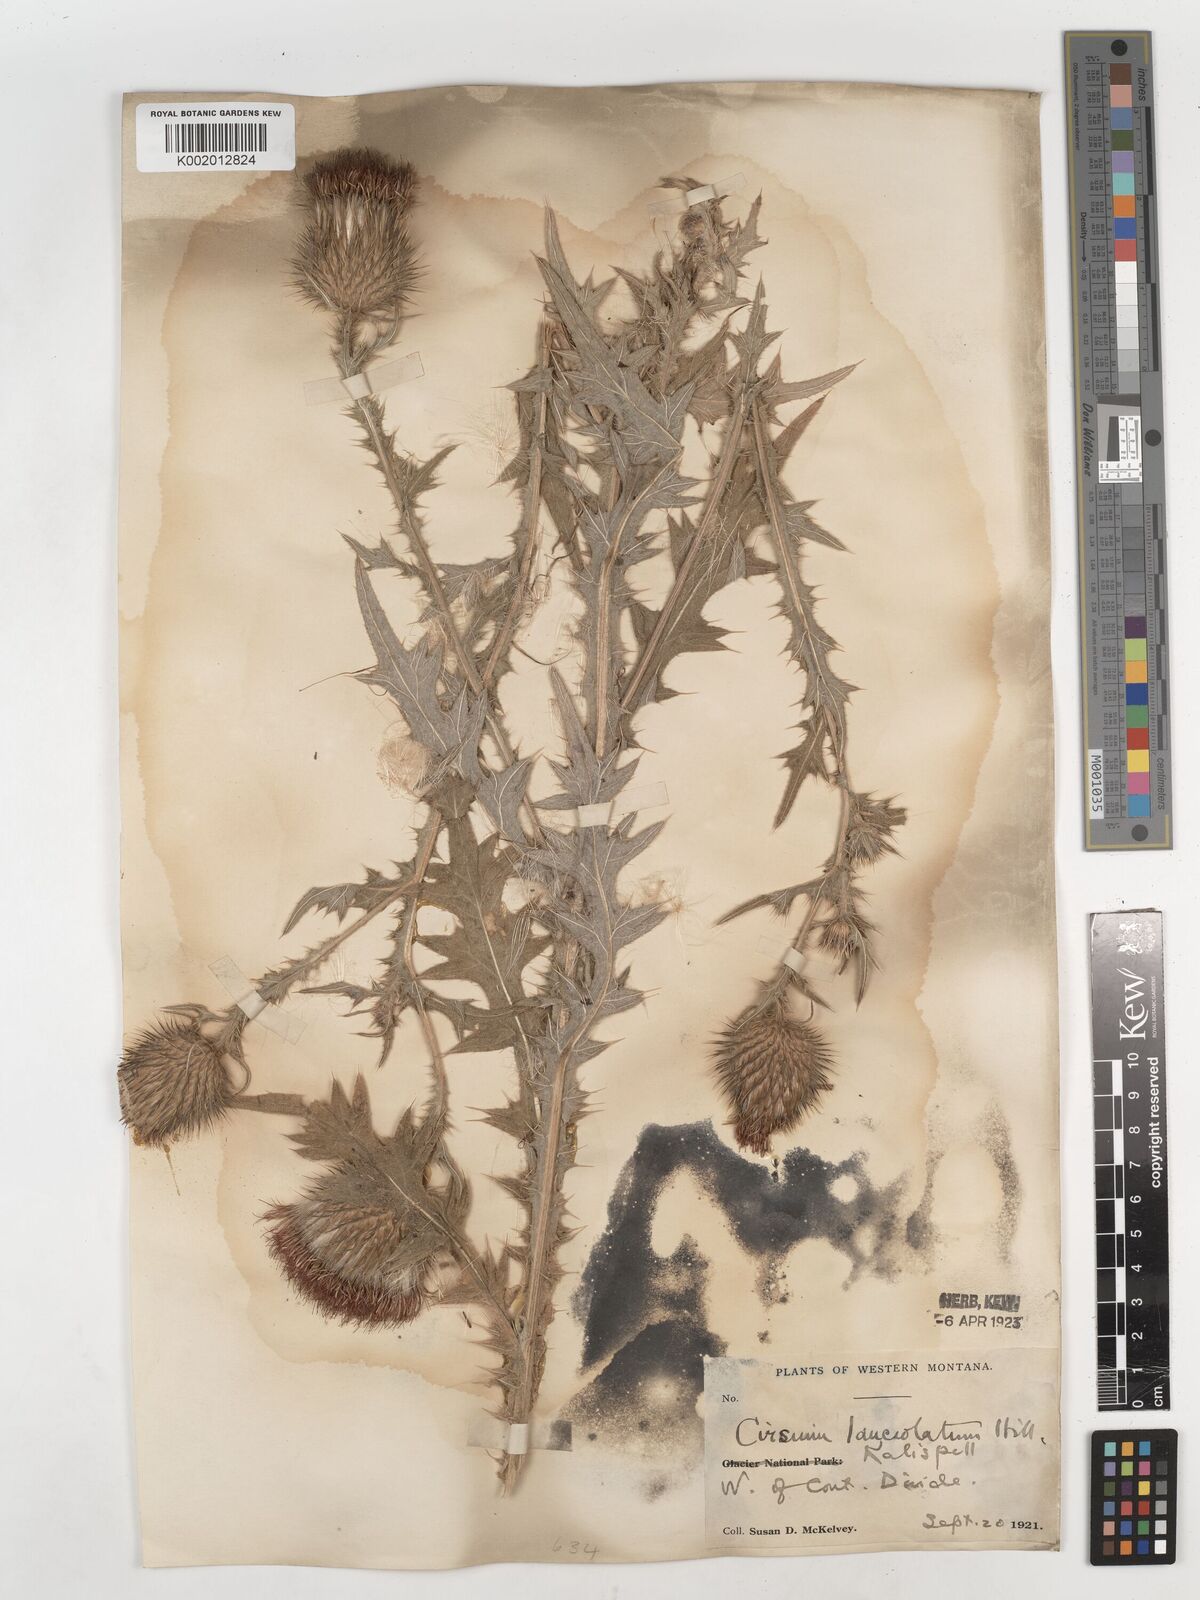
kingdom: Plantae
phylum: Tracheophyta
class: Magnoliopsida
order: Asterales
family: Asteraceae
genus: Cirsium
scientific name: Cirsium
